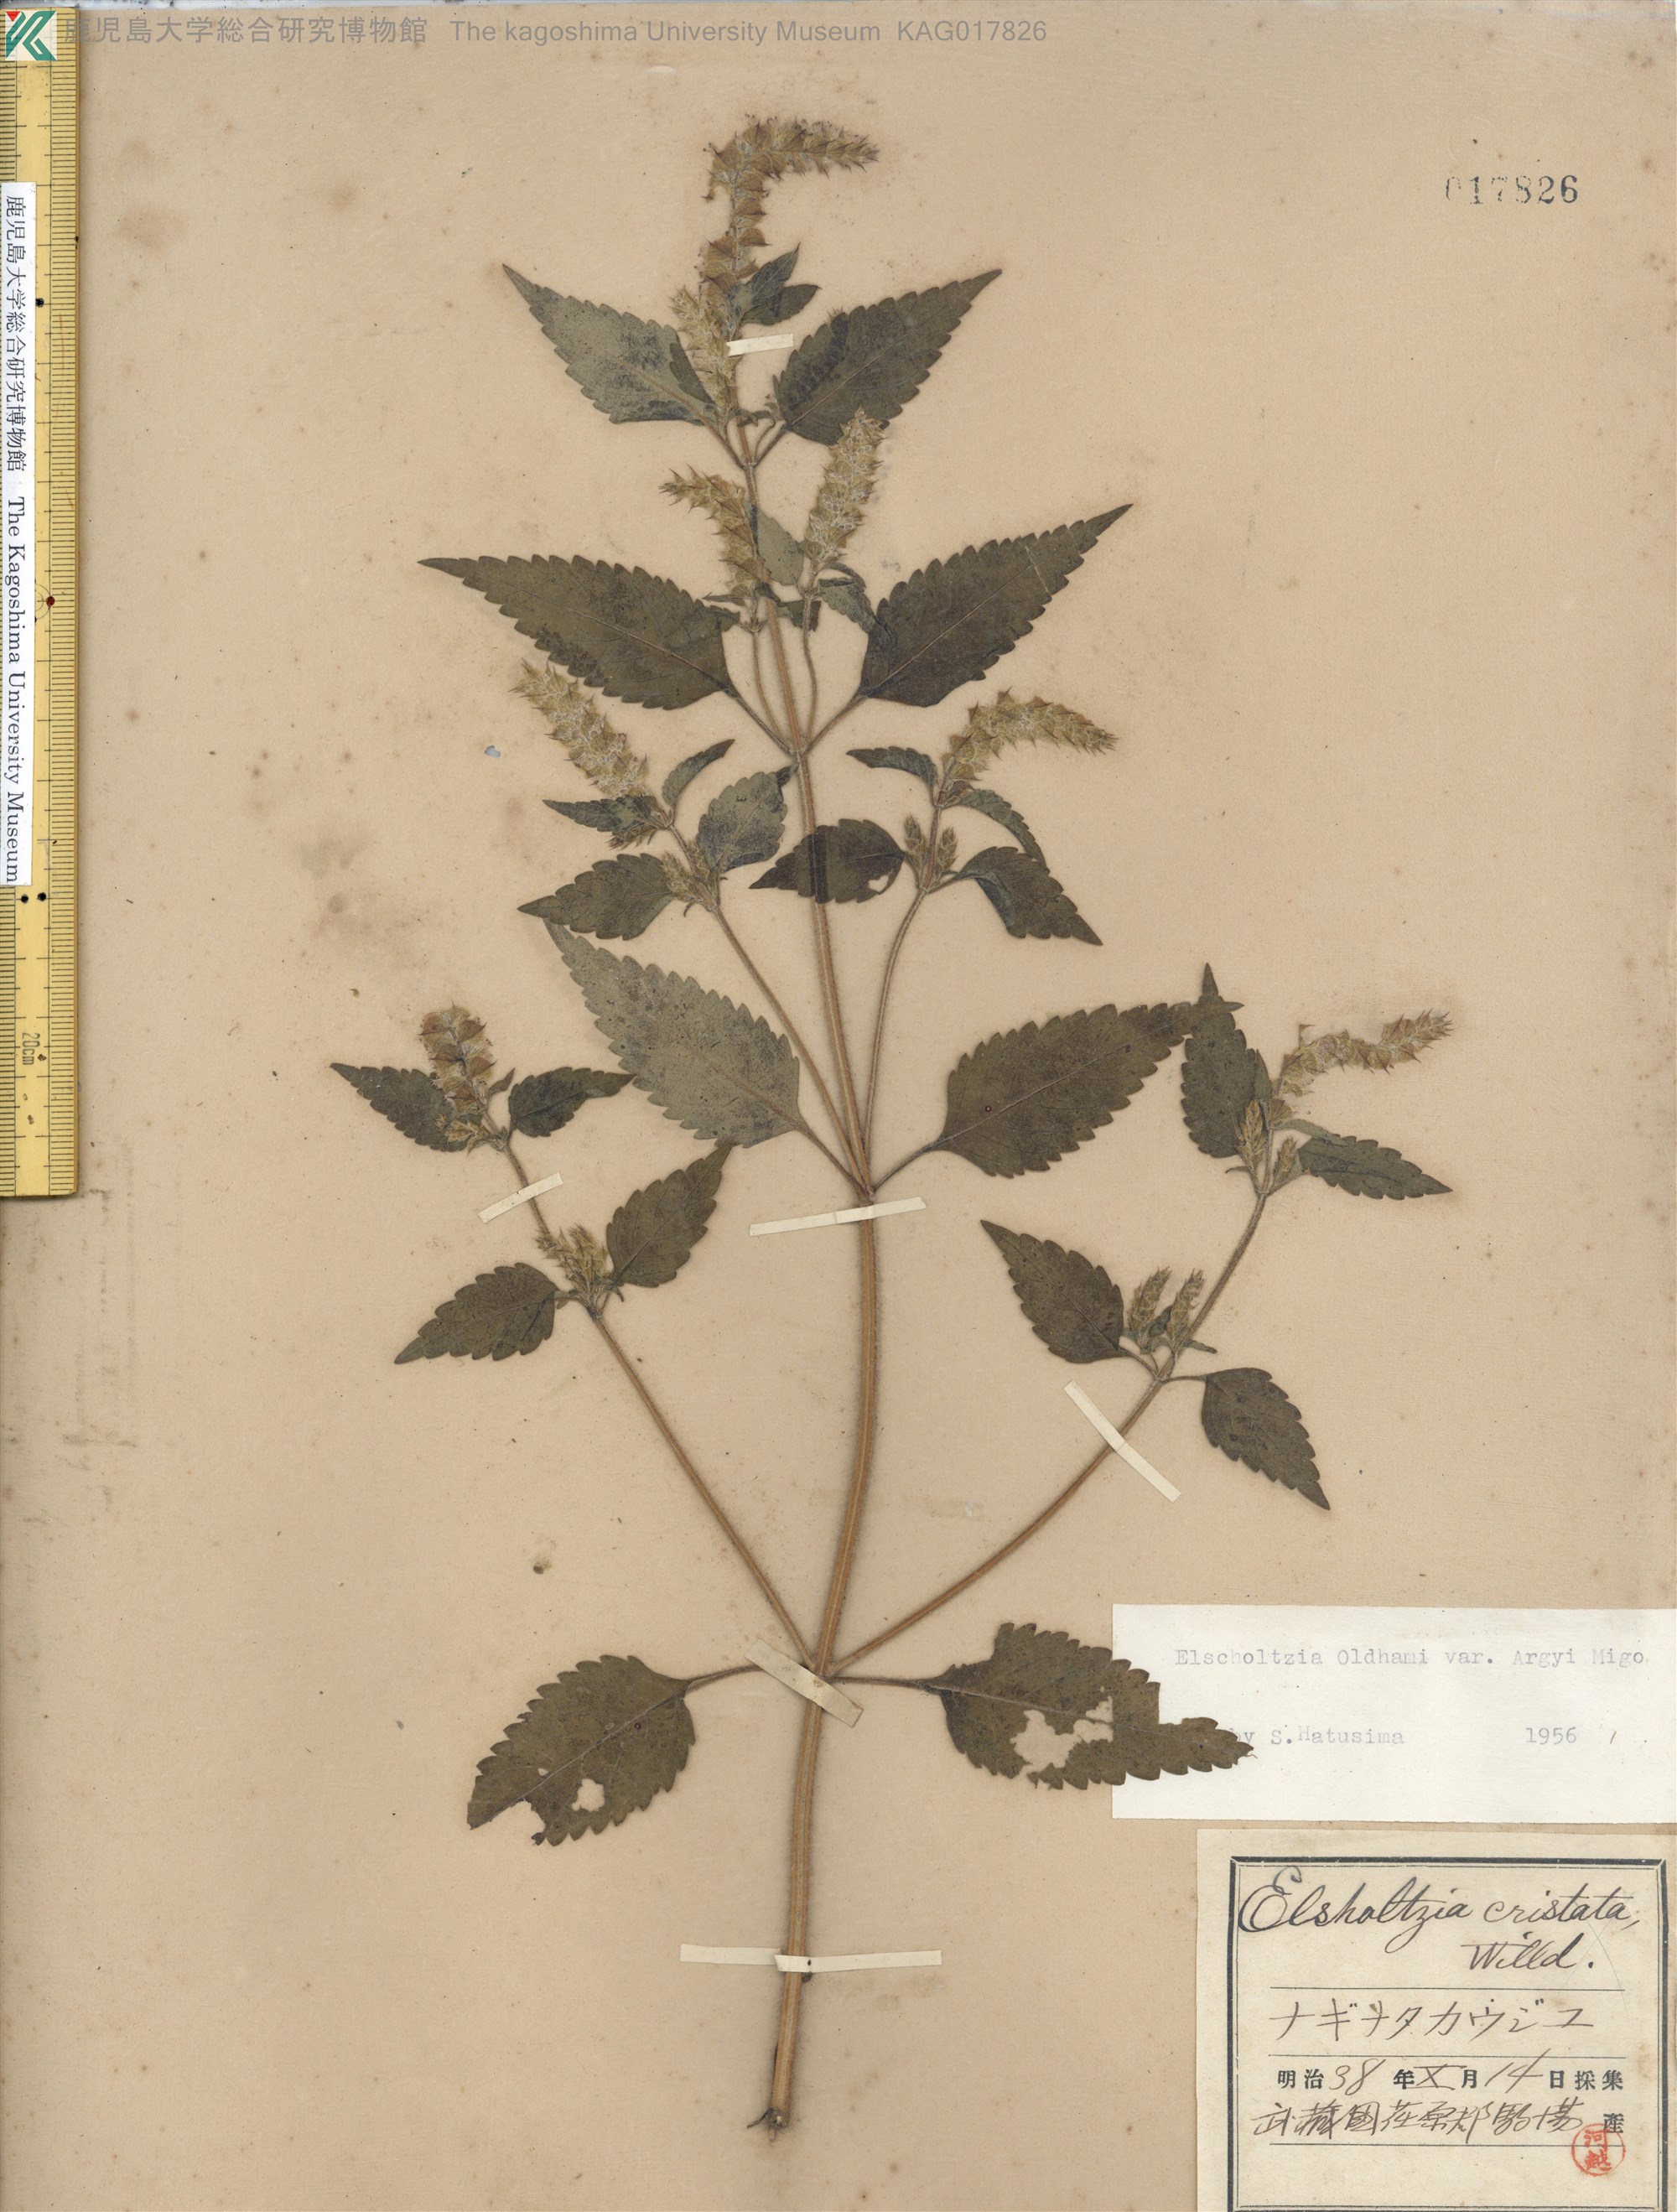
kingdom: Plantae
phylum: Tracheophyta
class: Magnoliopsida
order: Lamiales
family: Lamiaceae
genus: Elsholtzia
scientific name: Elsholtzia nipponica
